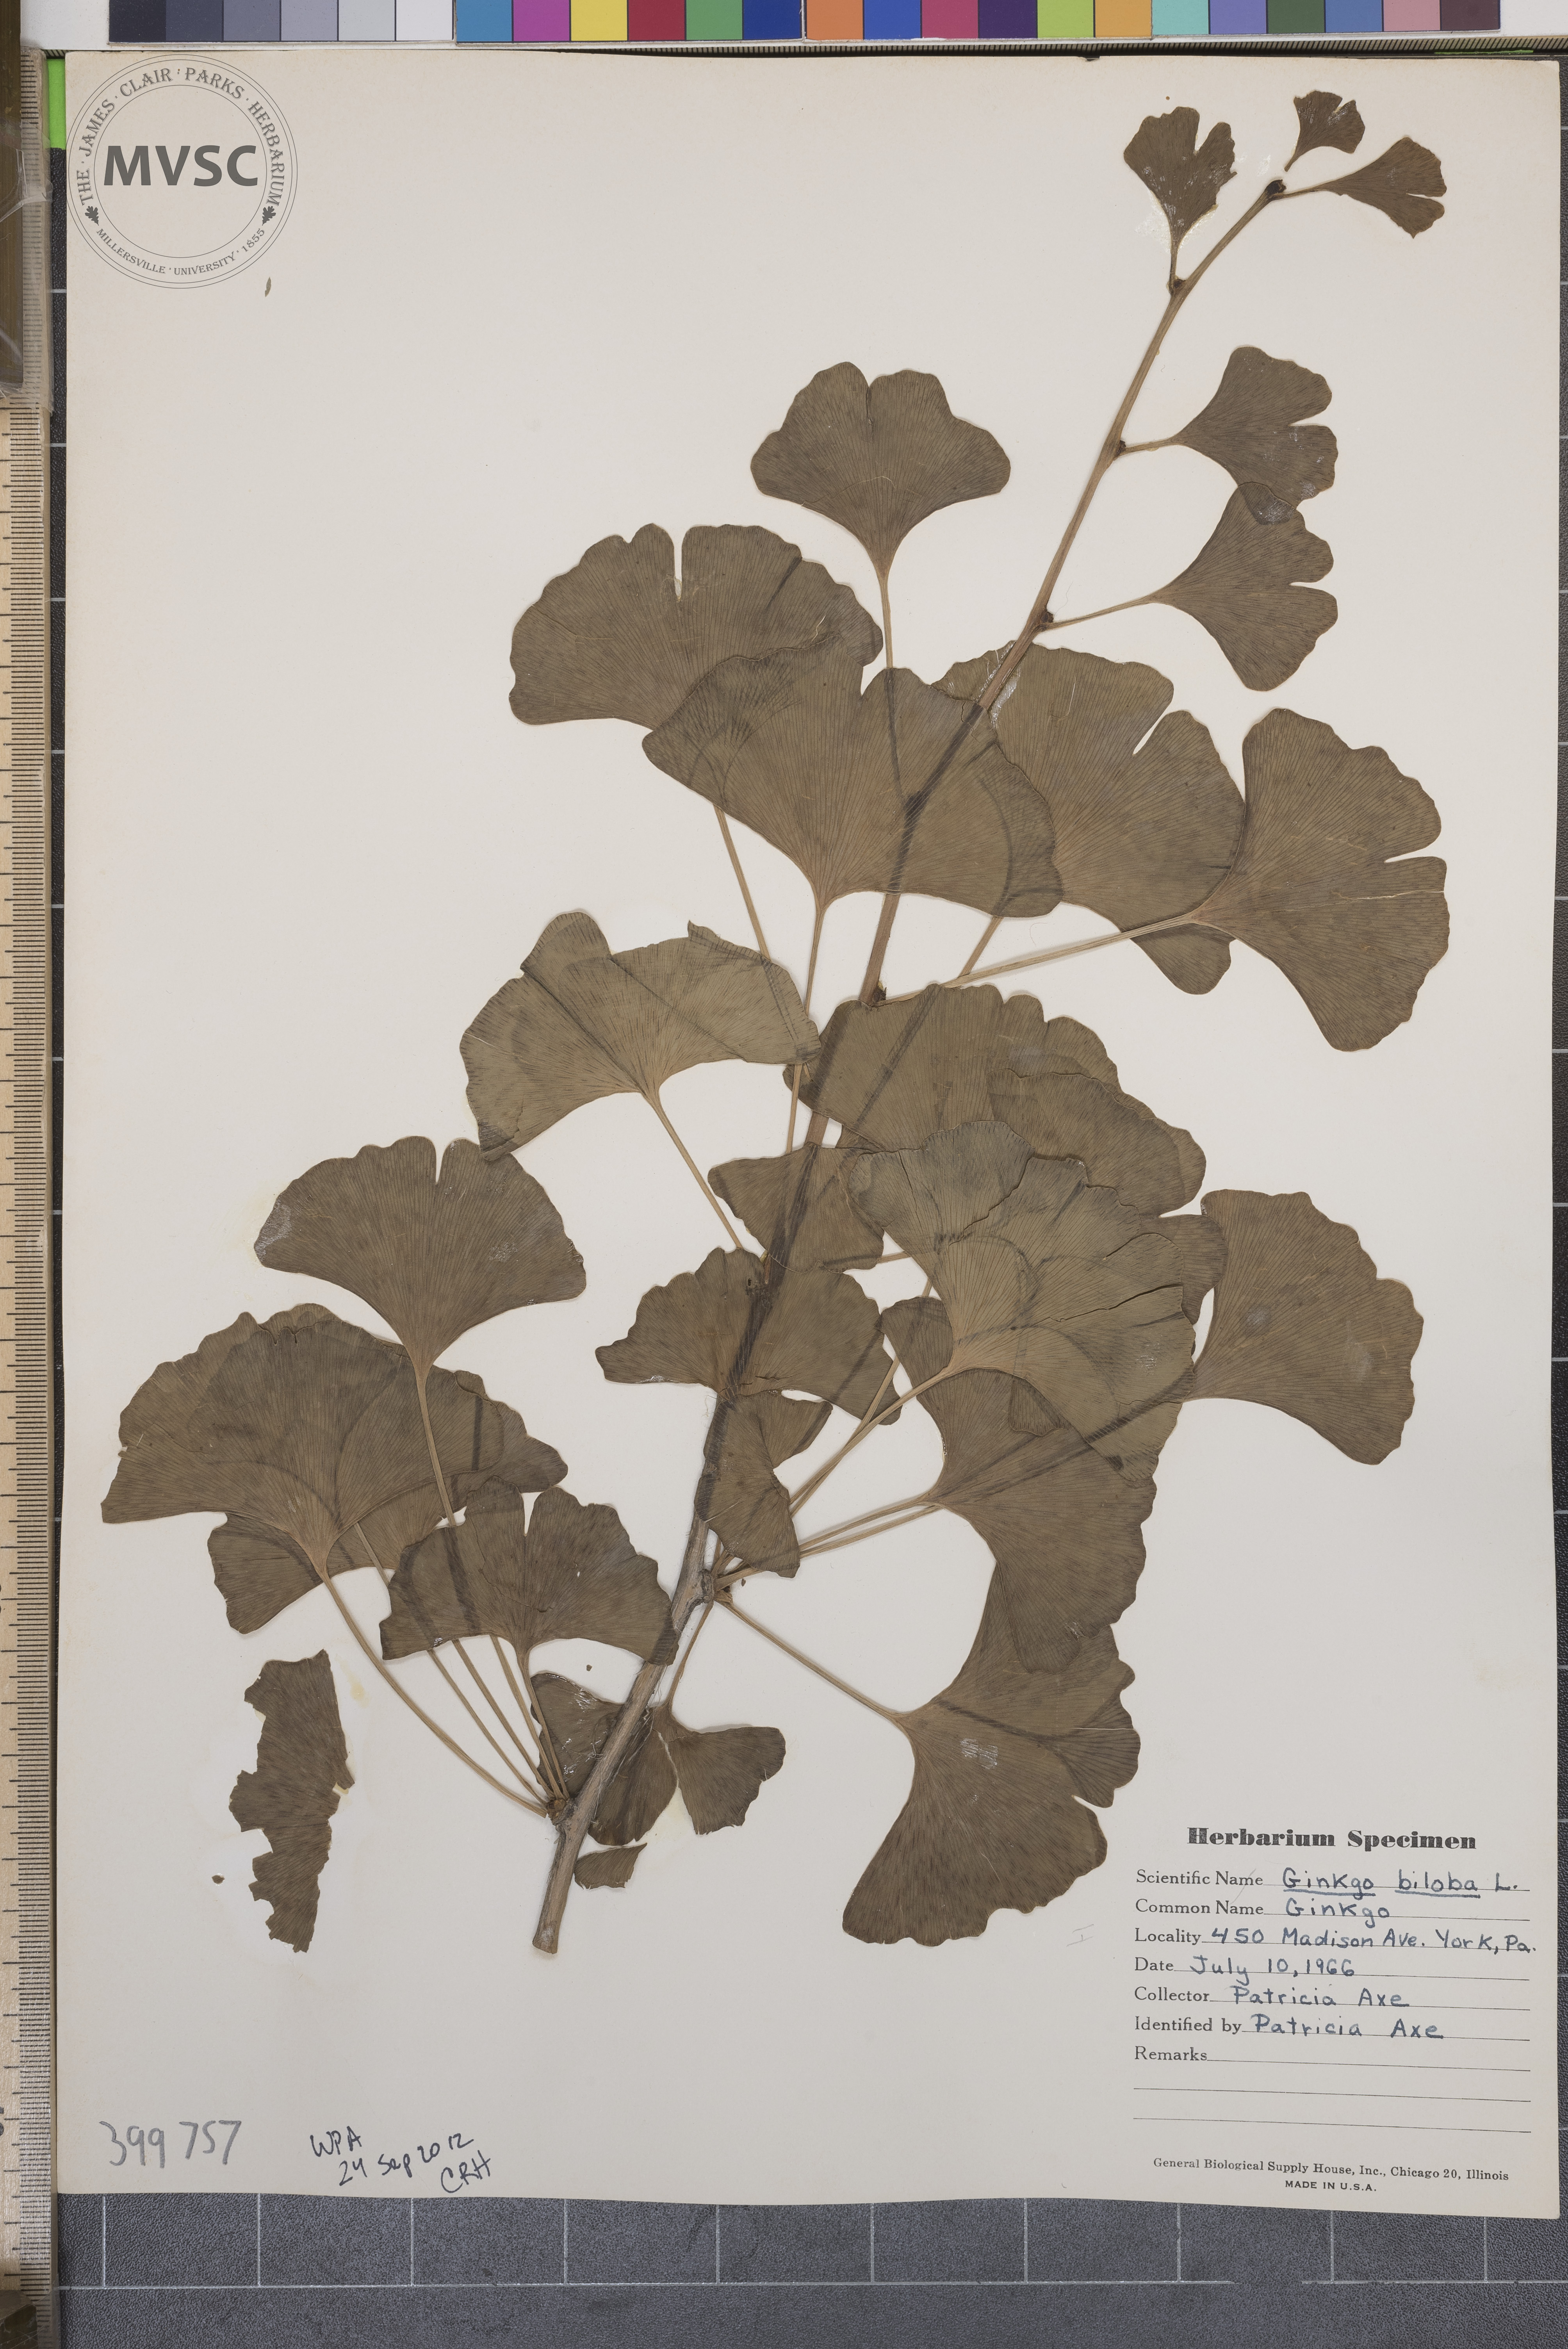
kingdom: Plantae
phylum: Tracheophyta
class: Ginkgoopsida
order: Ginkgoales
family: Ginkgoaceae
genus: Ginkgo
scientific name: Ginkgo biloba
